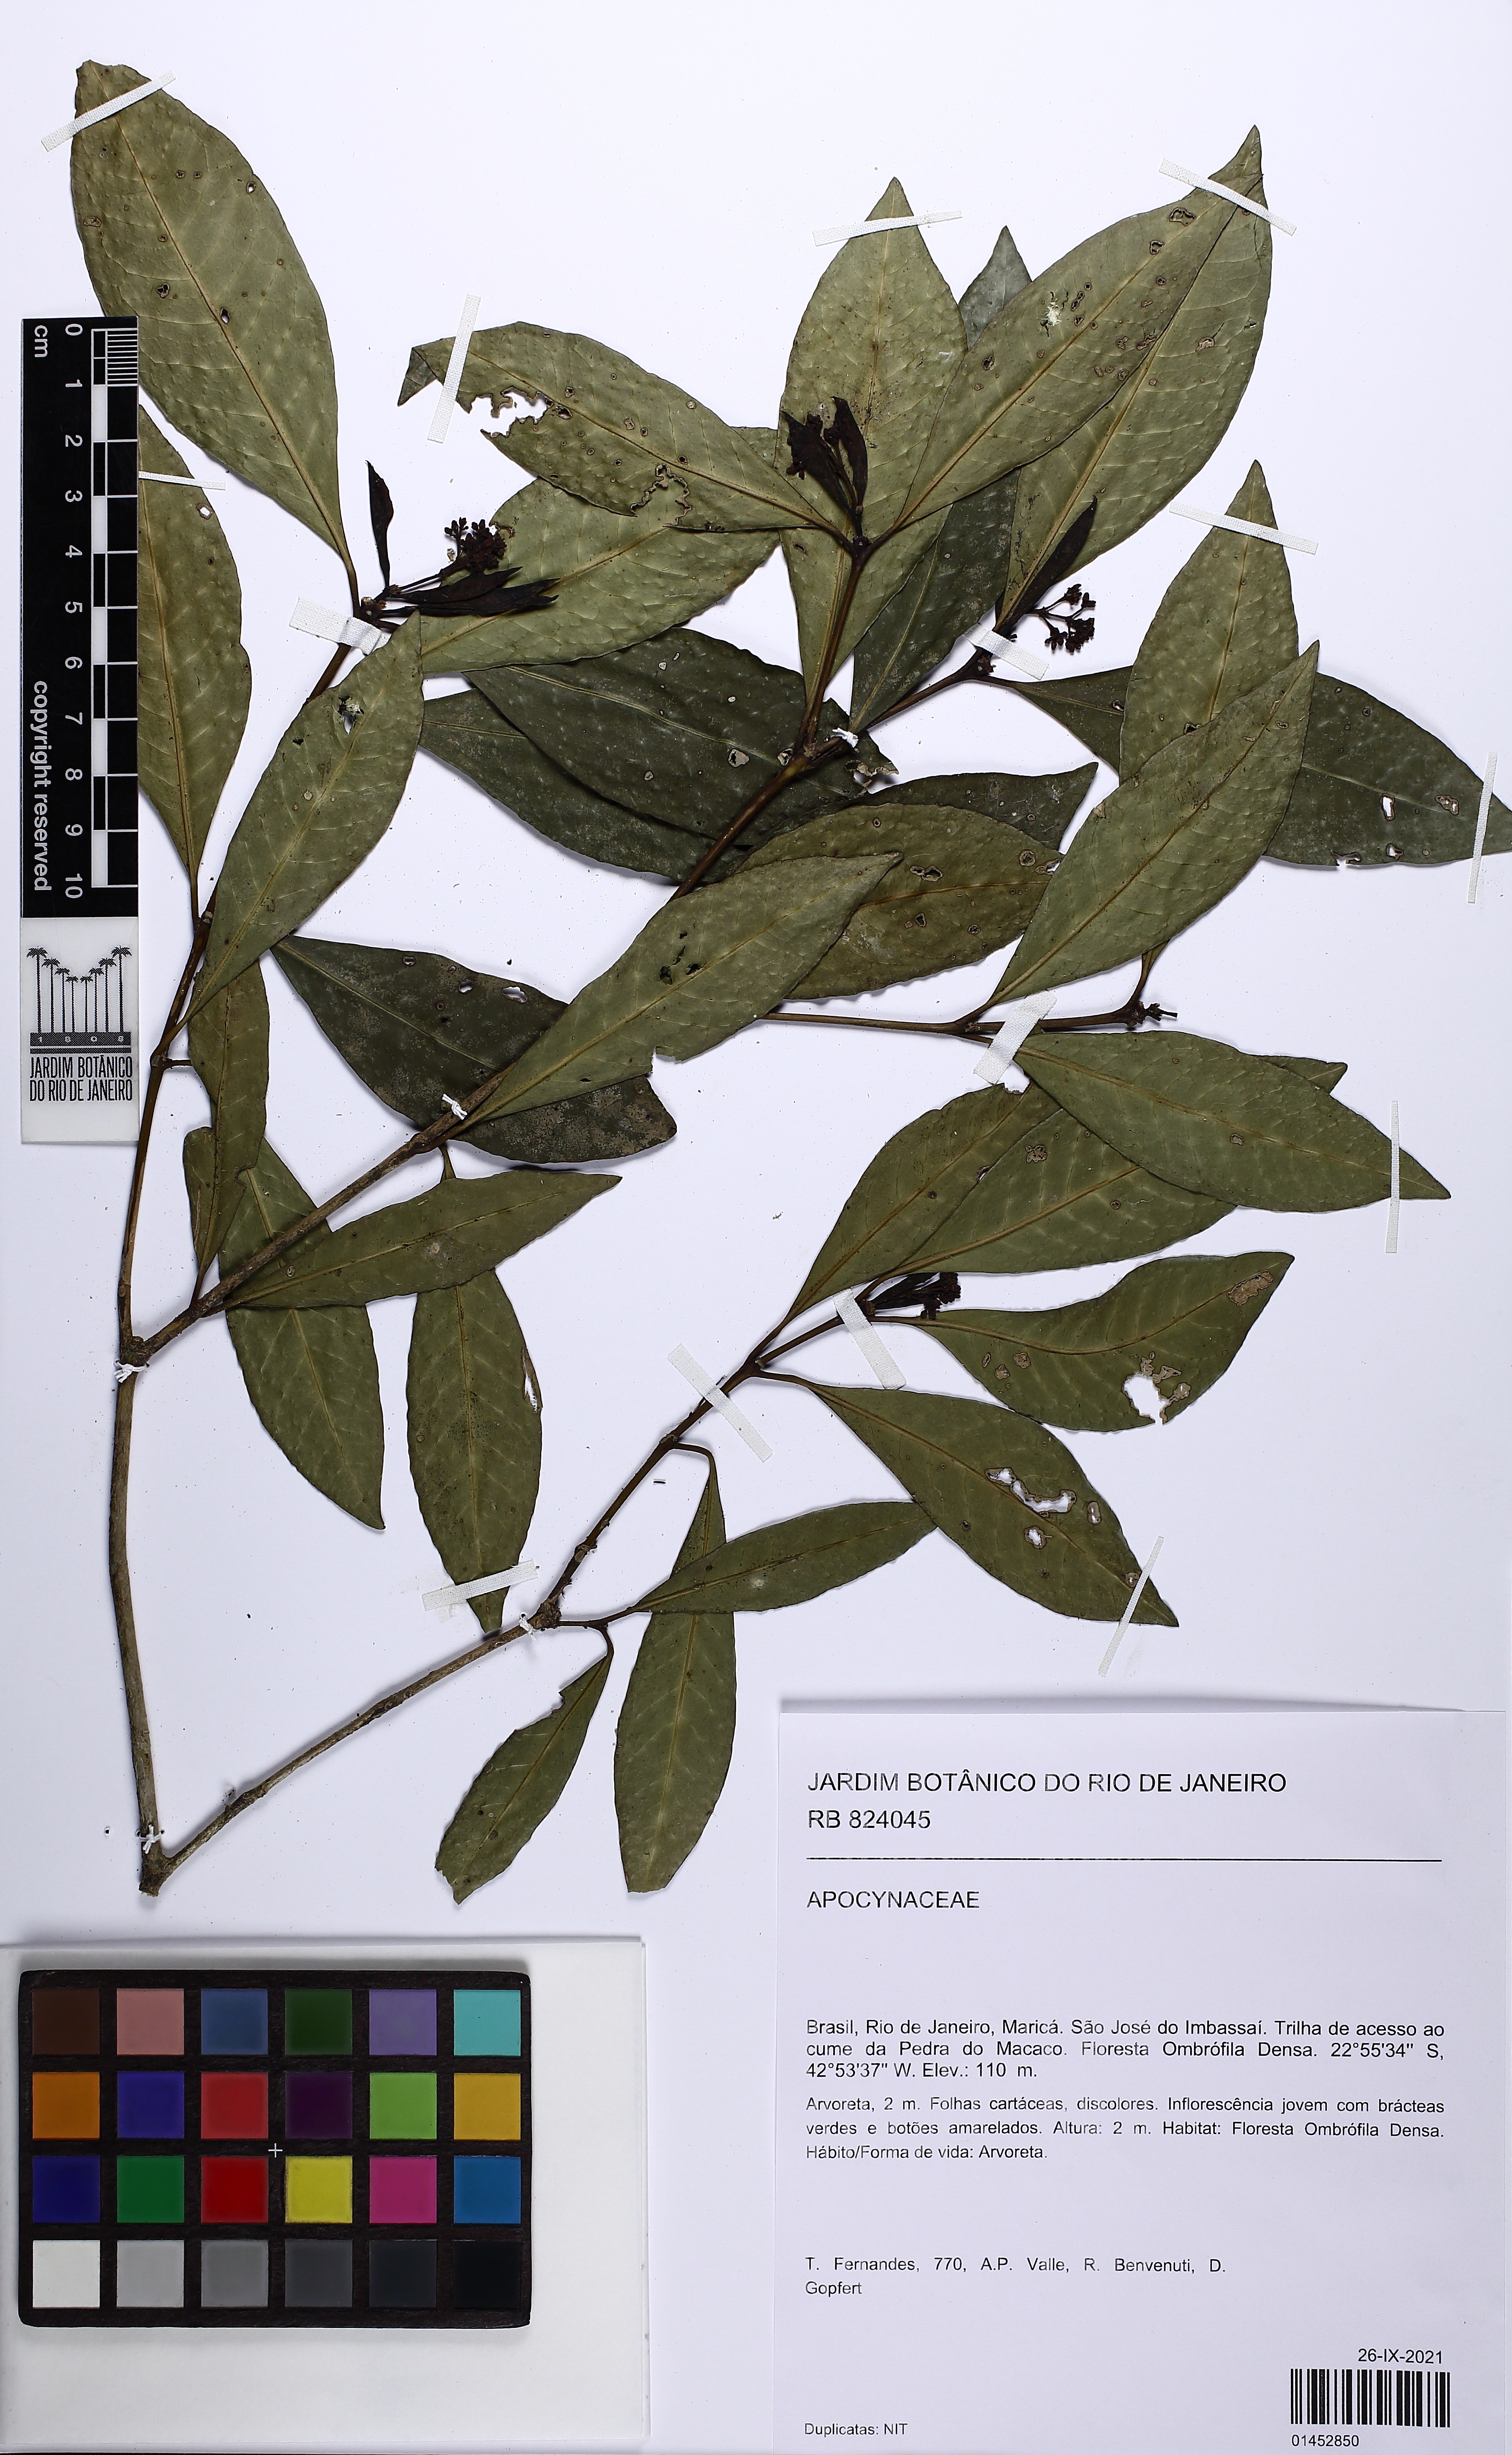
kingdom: Plantae
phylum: Tracheophyta
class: Magnoliopsida
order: Gentianales
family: Apocynaceae
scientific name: Apocynaceae
